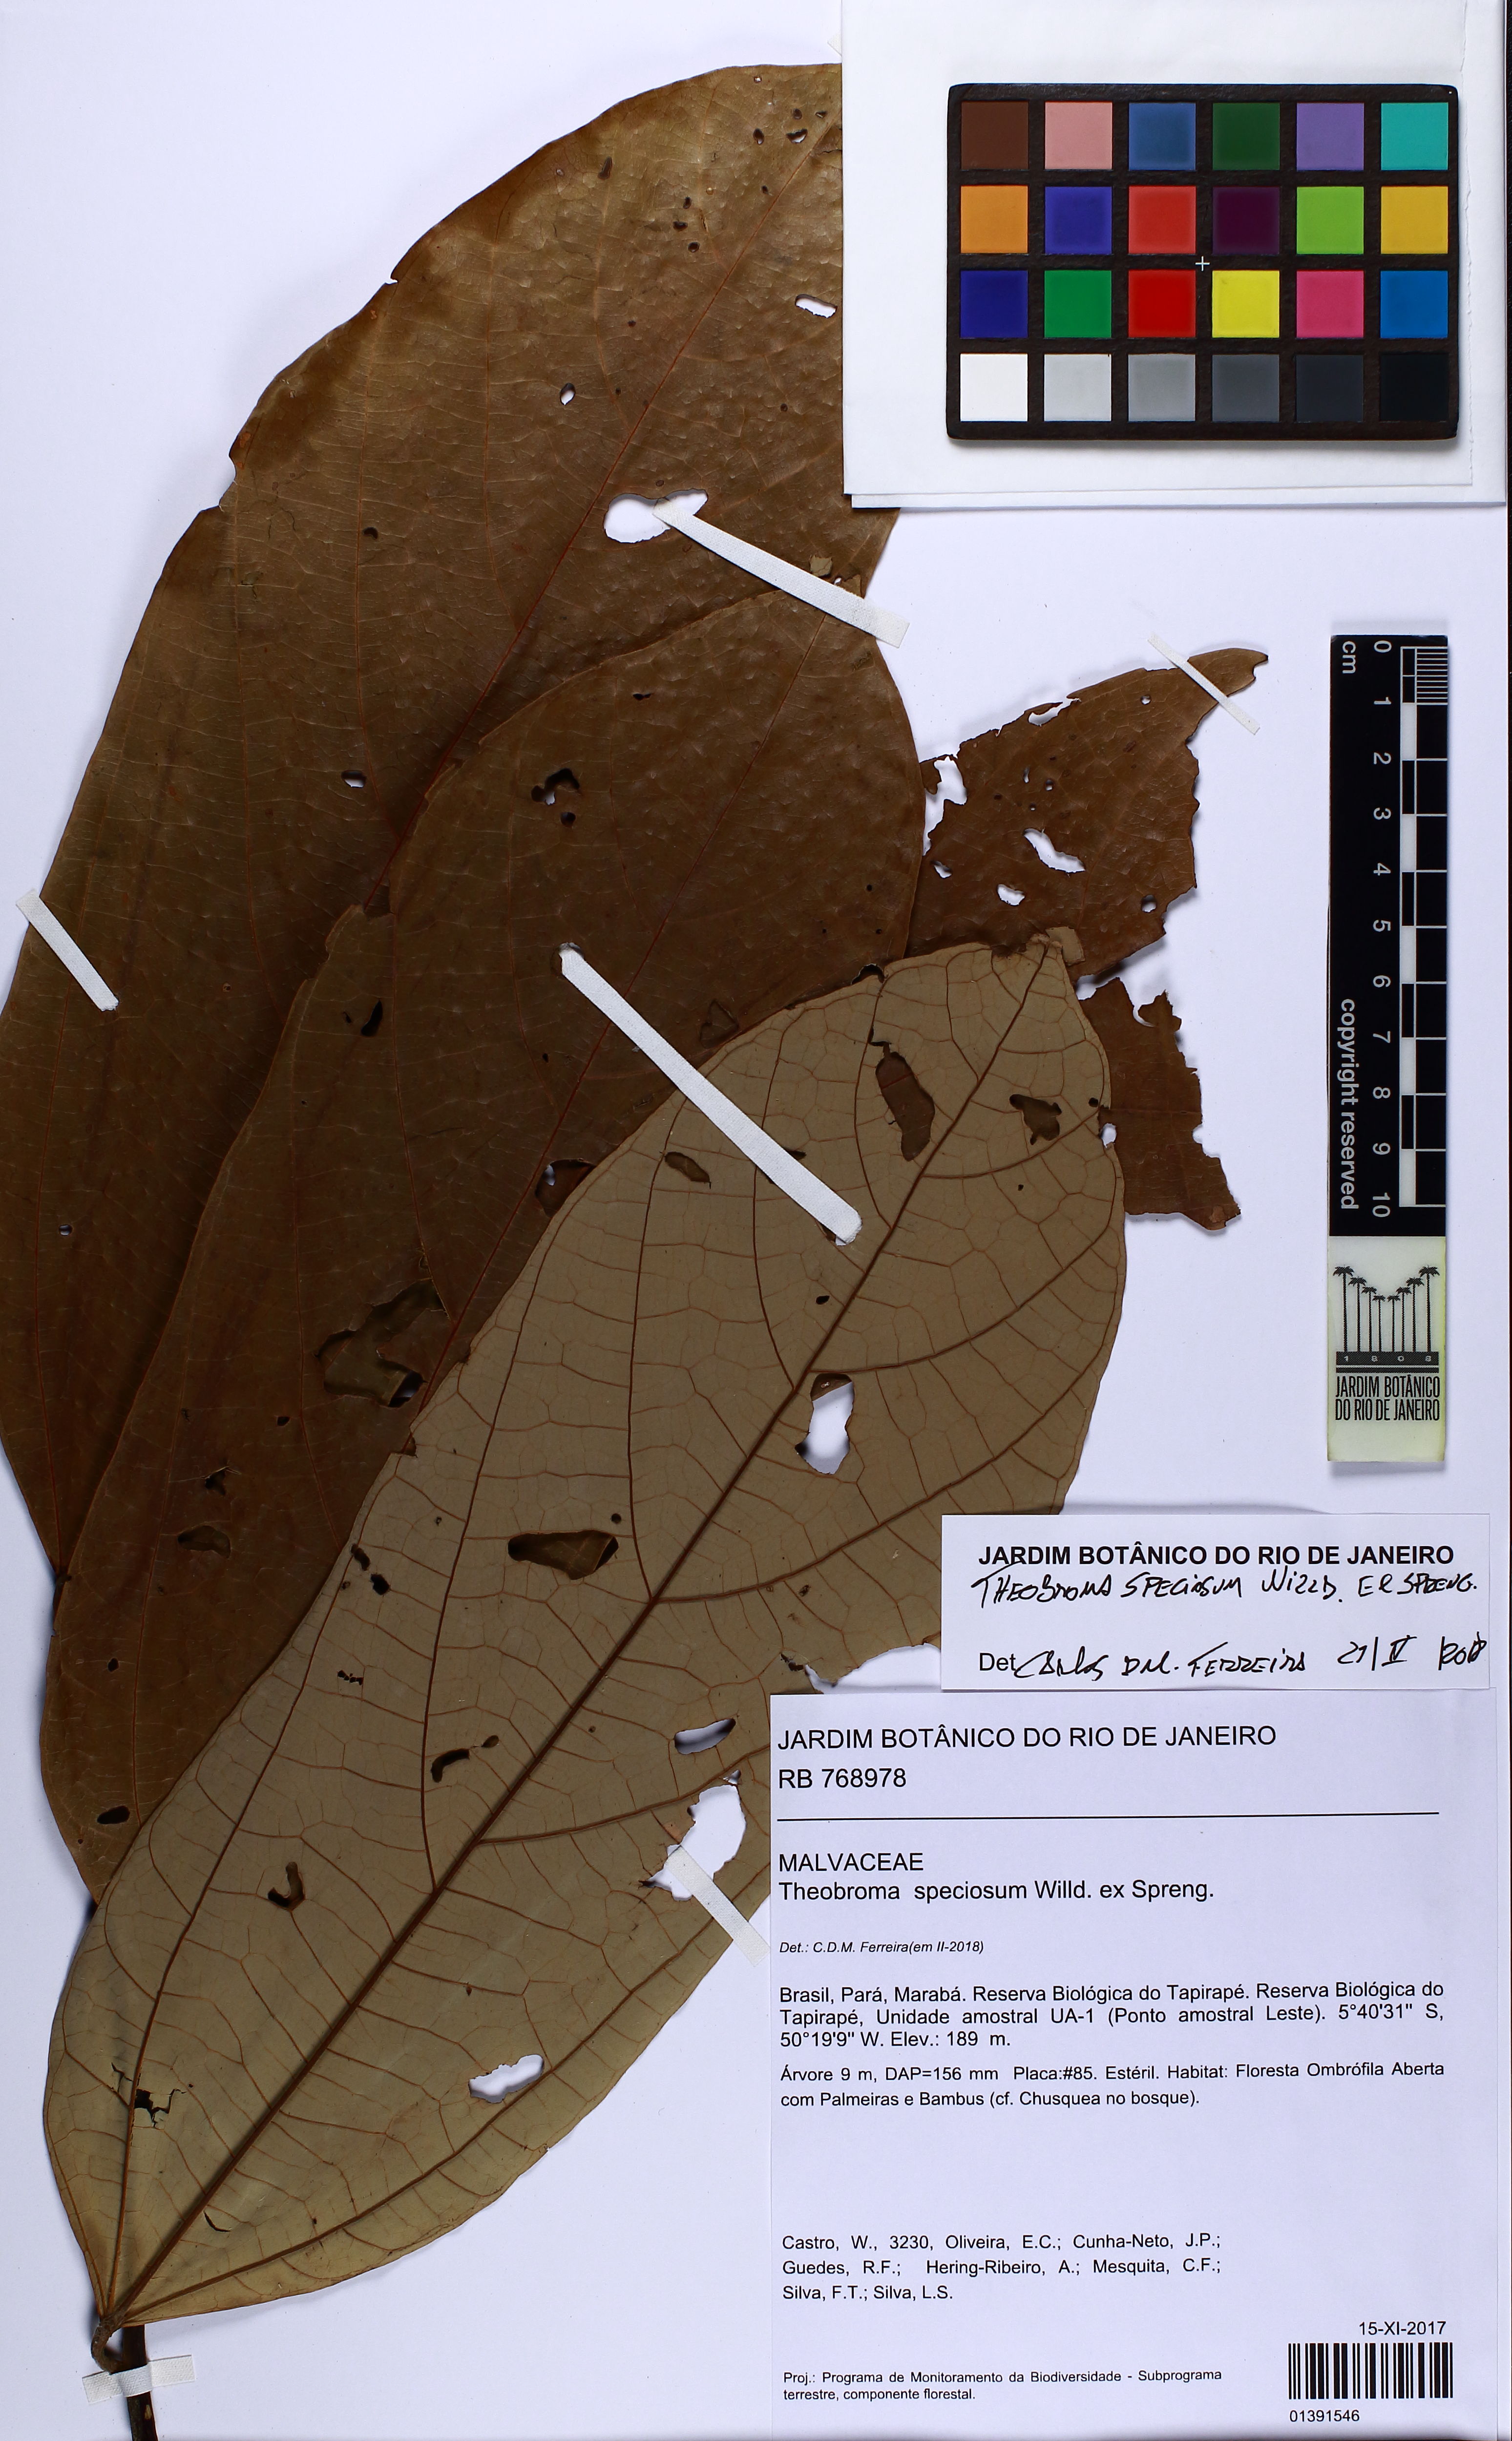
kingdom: Plantae
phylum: Tracheophyta
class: Magnoliopsida
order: Malvales
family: Malvaceae
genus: Theobroma
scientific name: Theobroma speciosum
